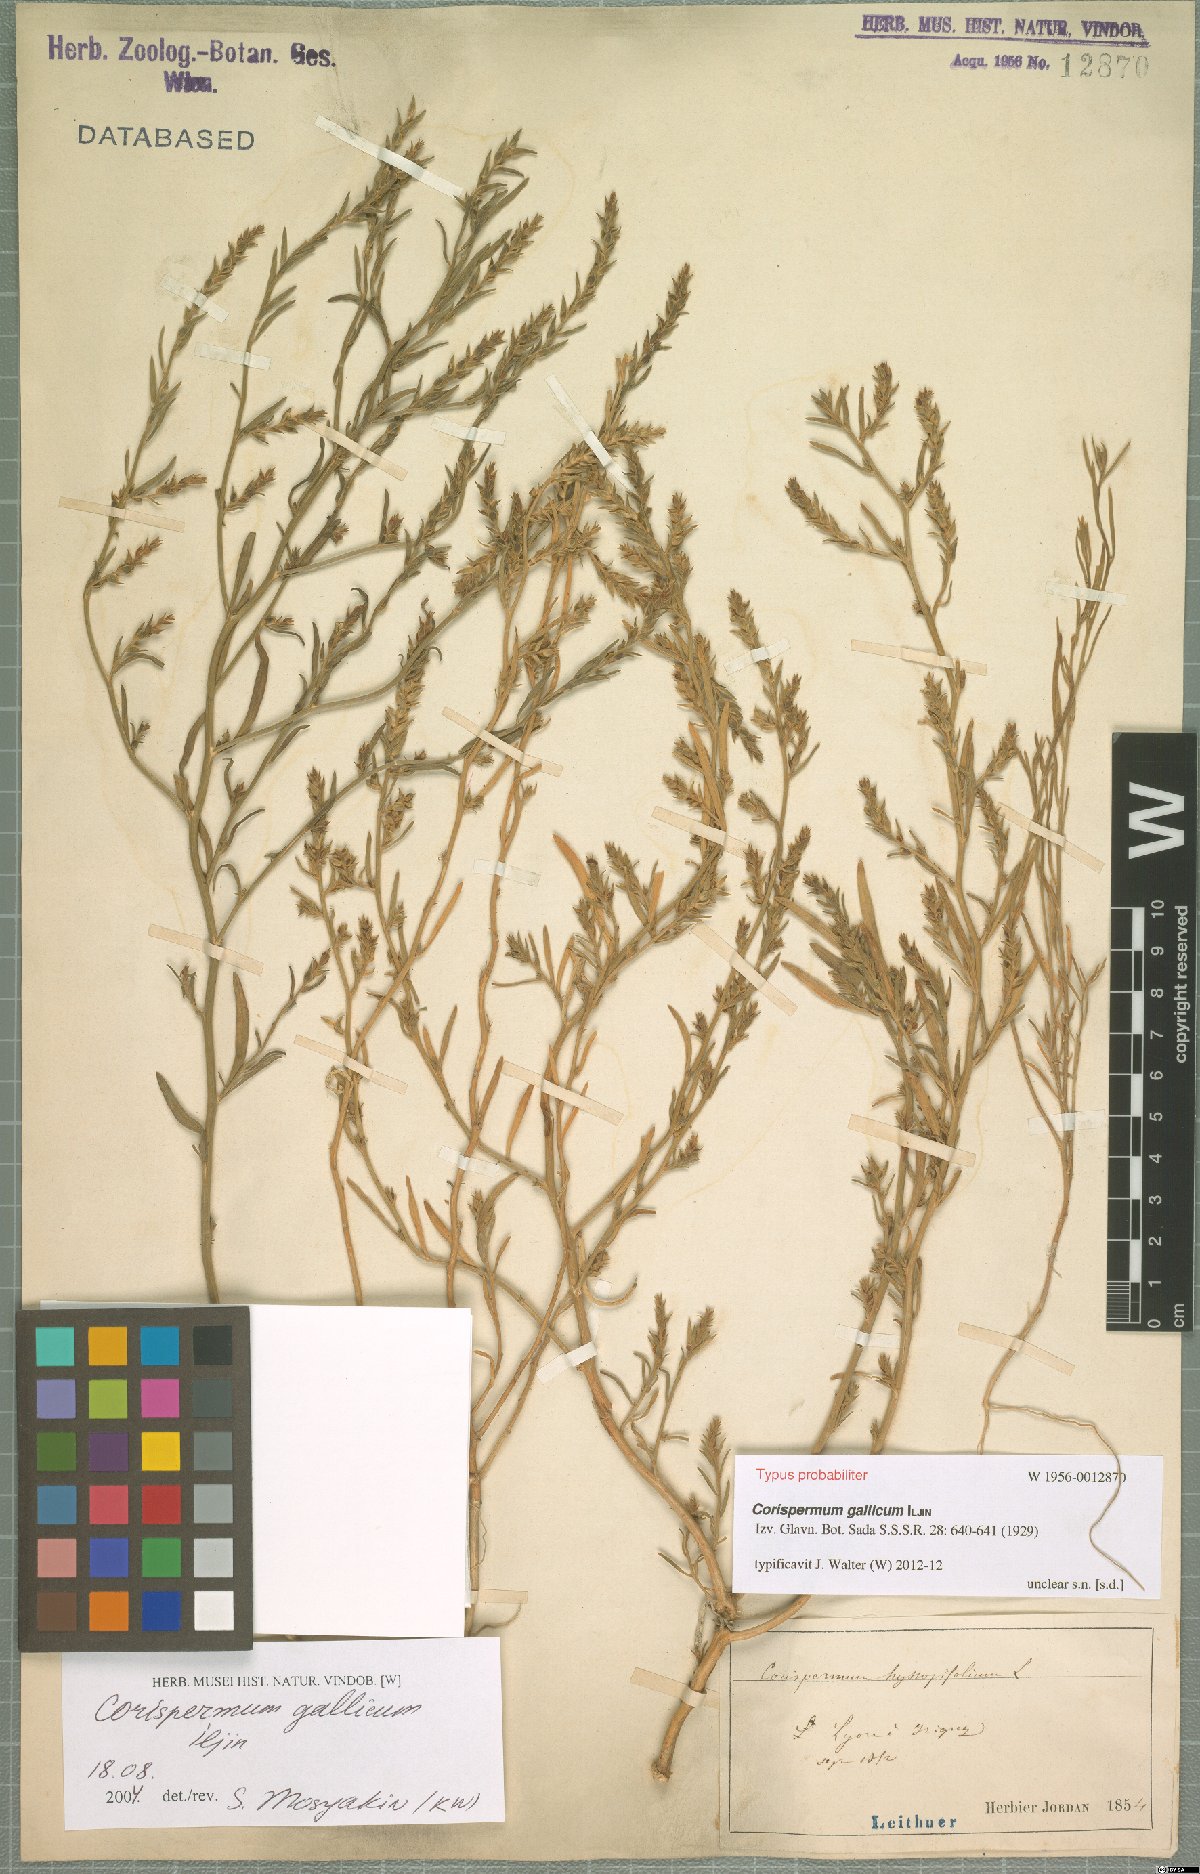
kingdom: Plantae
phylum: Tracheophyta
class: Magnoliopsida
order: Caryophyllales
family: Amaranthaceae
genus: Corispermum
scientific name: Corispermum gallicum
